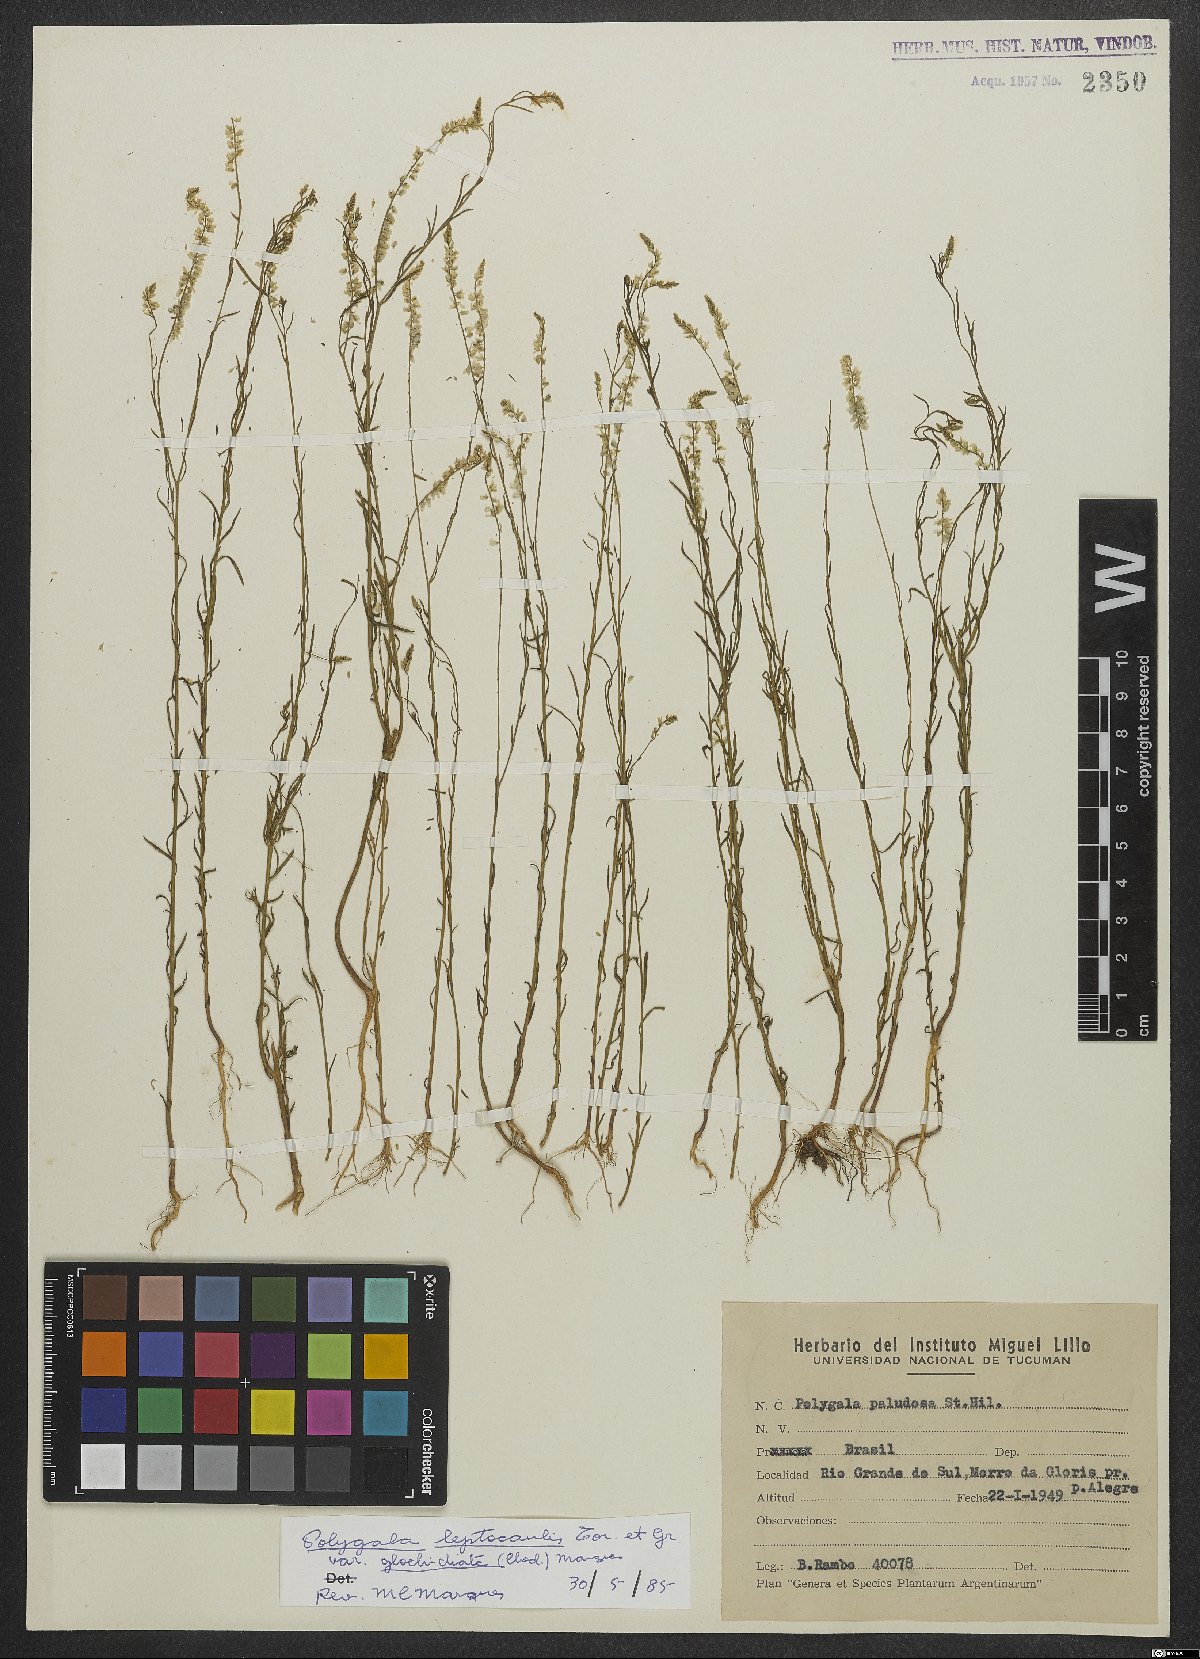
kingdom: Plantae
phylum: Tracheophyta
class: Magnoliopsida
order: Fabales
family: Polygalaceae
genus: Polygala
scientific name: Polygala tenella
